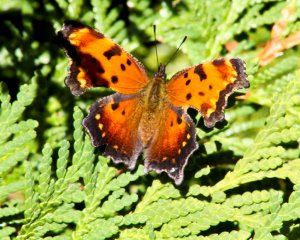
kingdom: Animalia
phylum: Arthropoda
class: Insecta
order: Lepidoptera
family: Nymphalidae
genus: Polygonia
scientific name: Polygonia comma
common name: Eastern Comma
